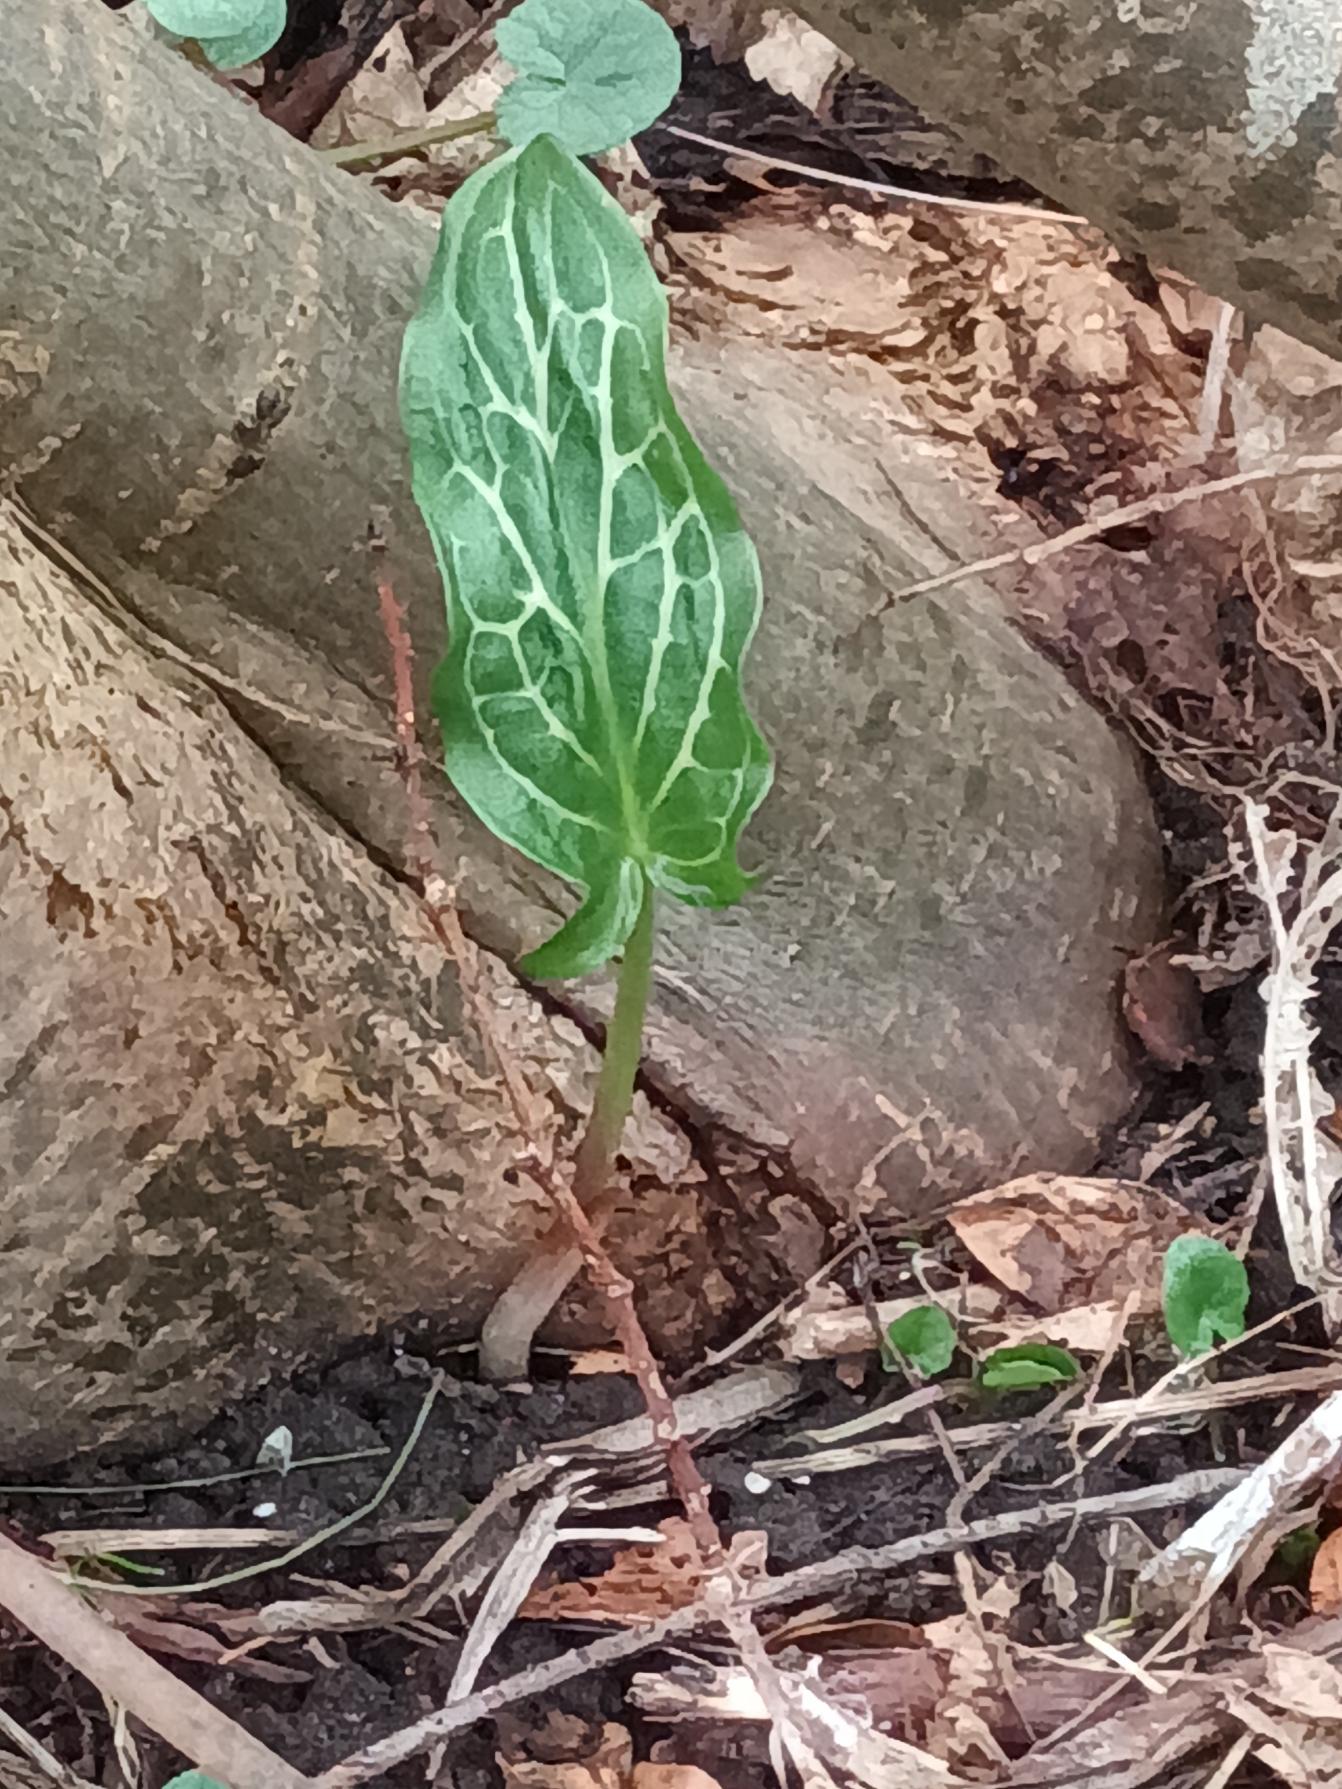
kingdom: Plantae
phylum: Tracheophyta
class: Liliopsida
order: Alismatales
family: Araceae
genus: Arum
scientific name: Arum italicum
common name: Italiensk arum
